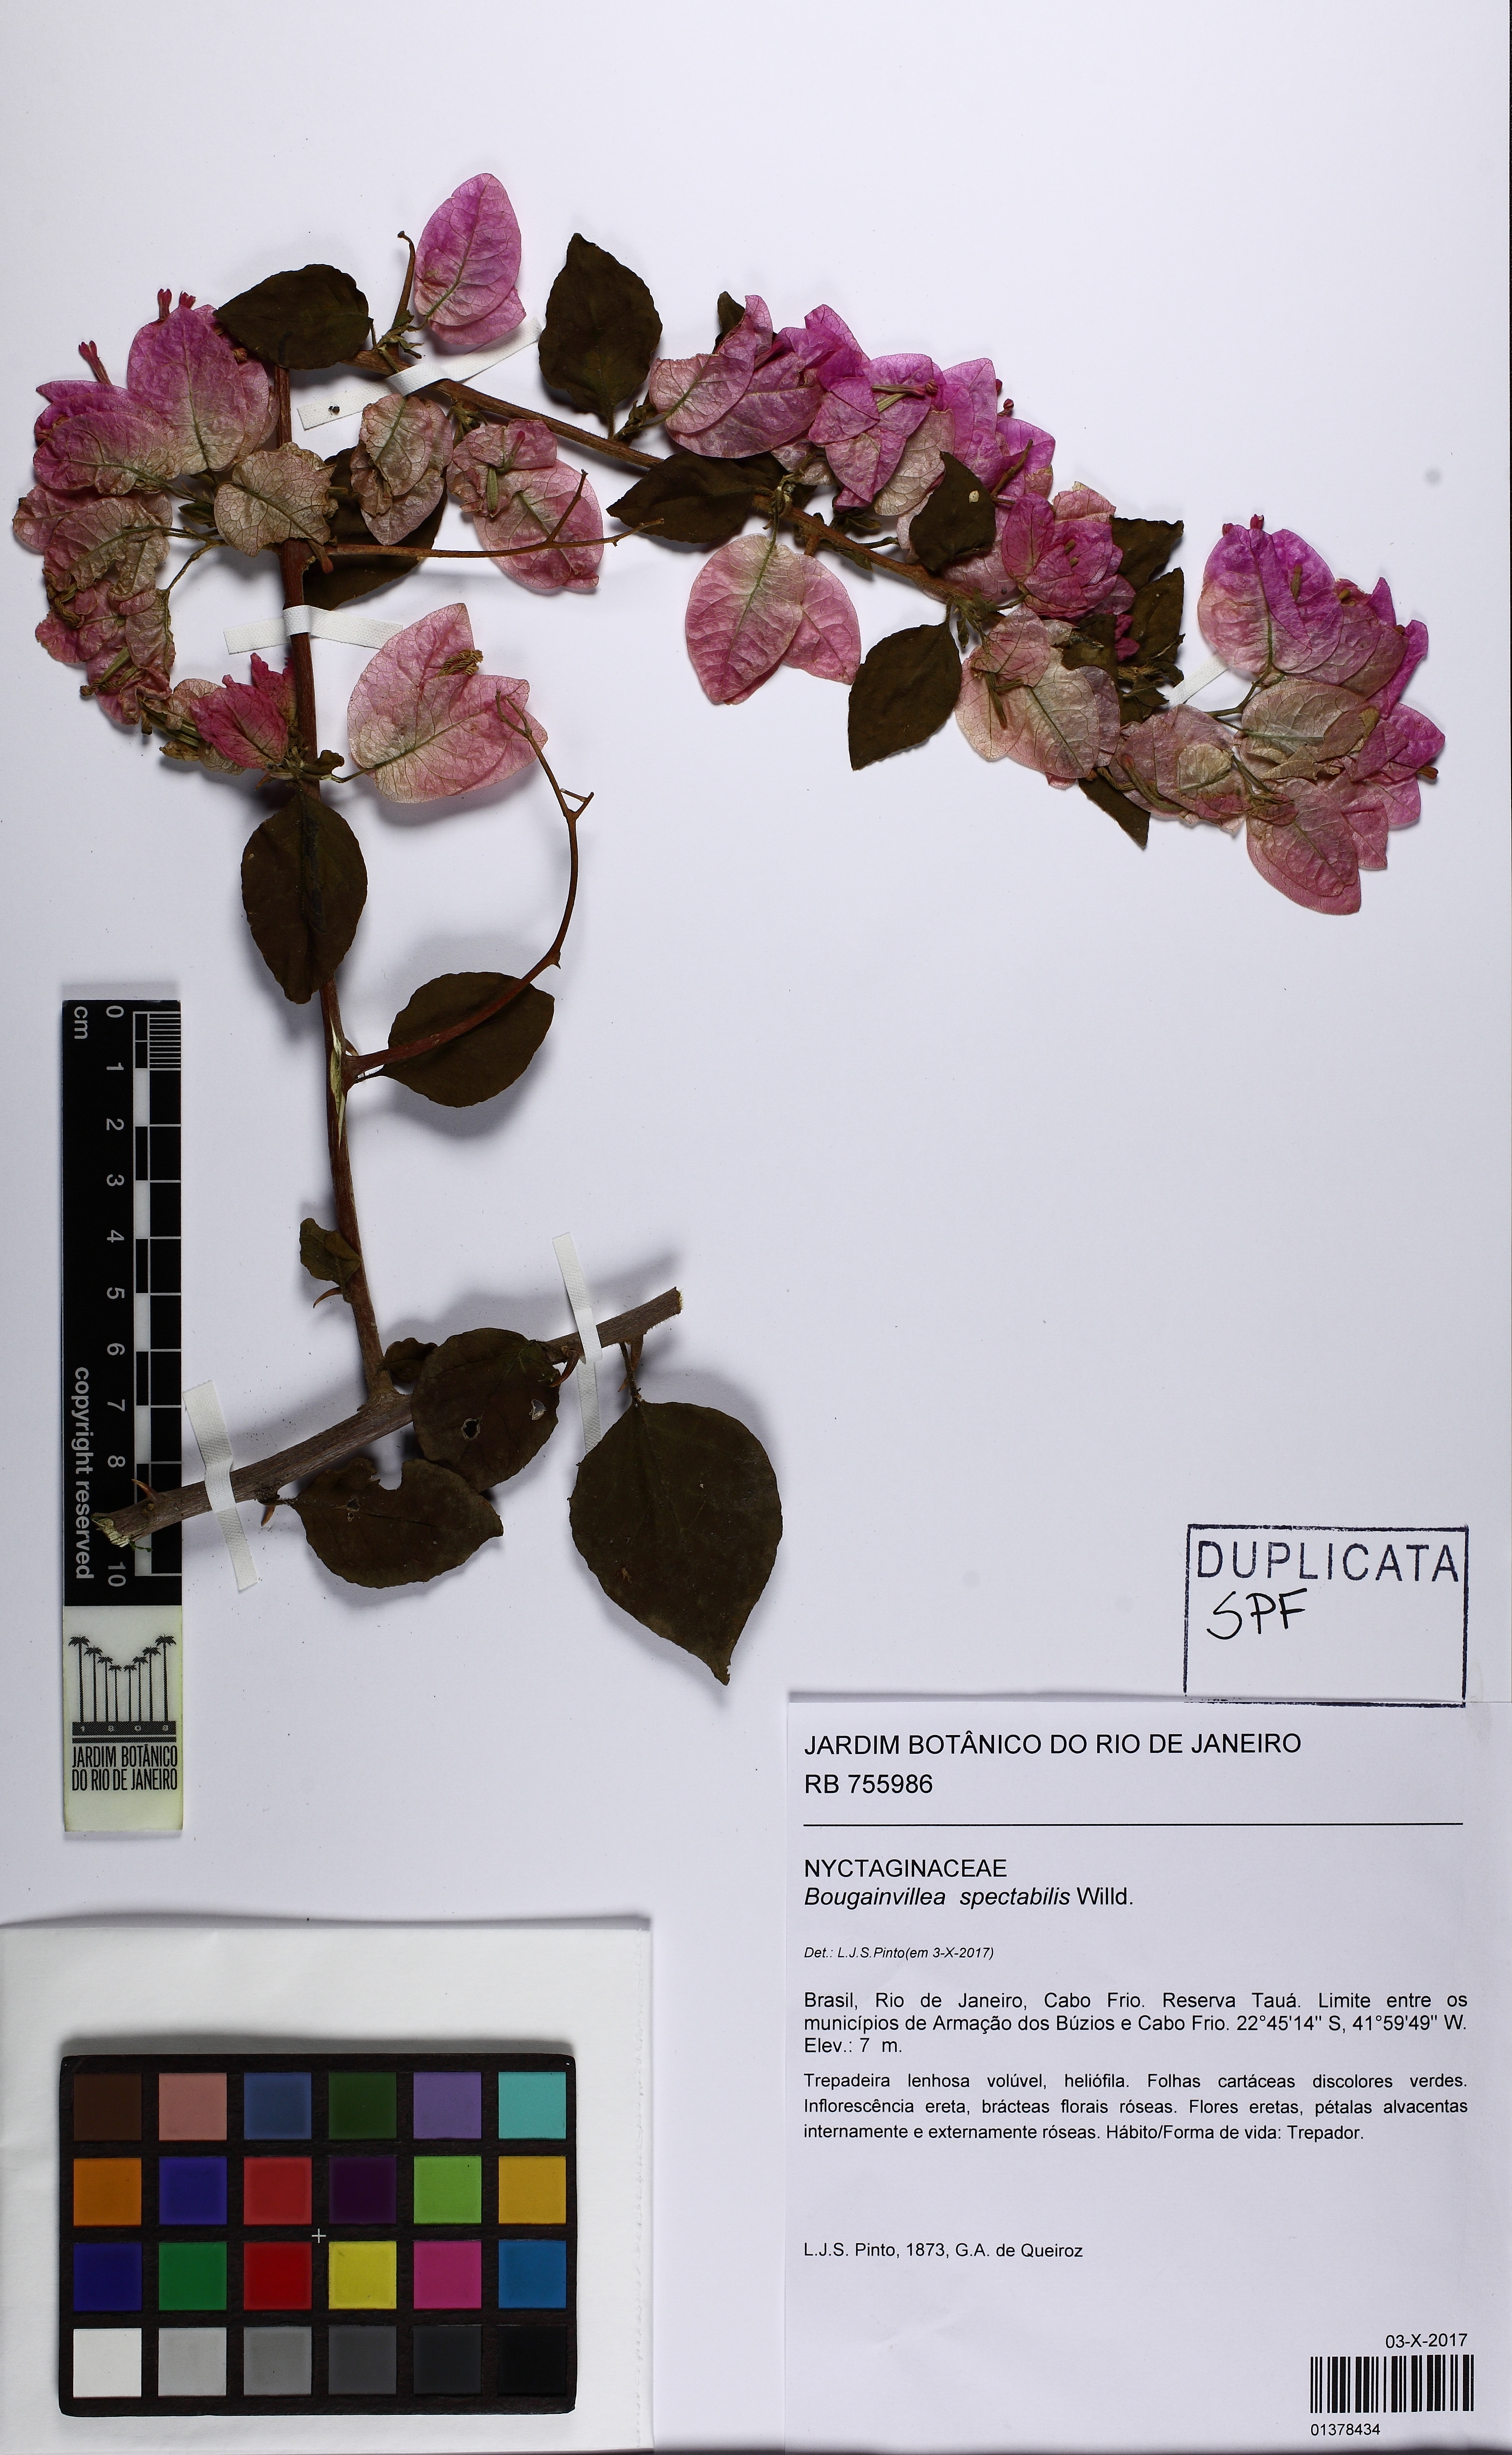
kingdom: Plantae
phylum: Tracheophyta
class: Magnoliopsida
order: Caryophyllales
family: Nyctaginaceae
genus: Bougainvillea
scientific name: Bougainvillea spectabilis
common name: Great bougainvillea
